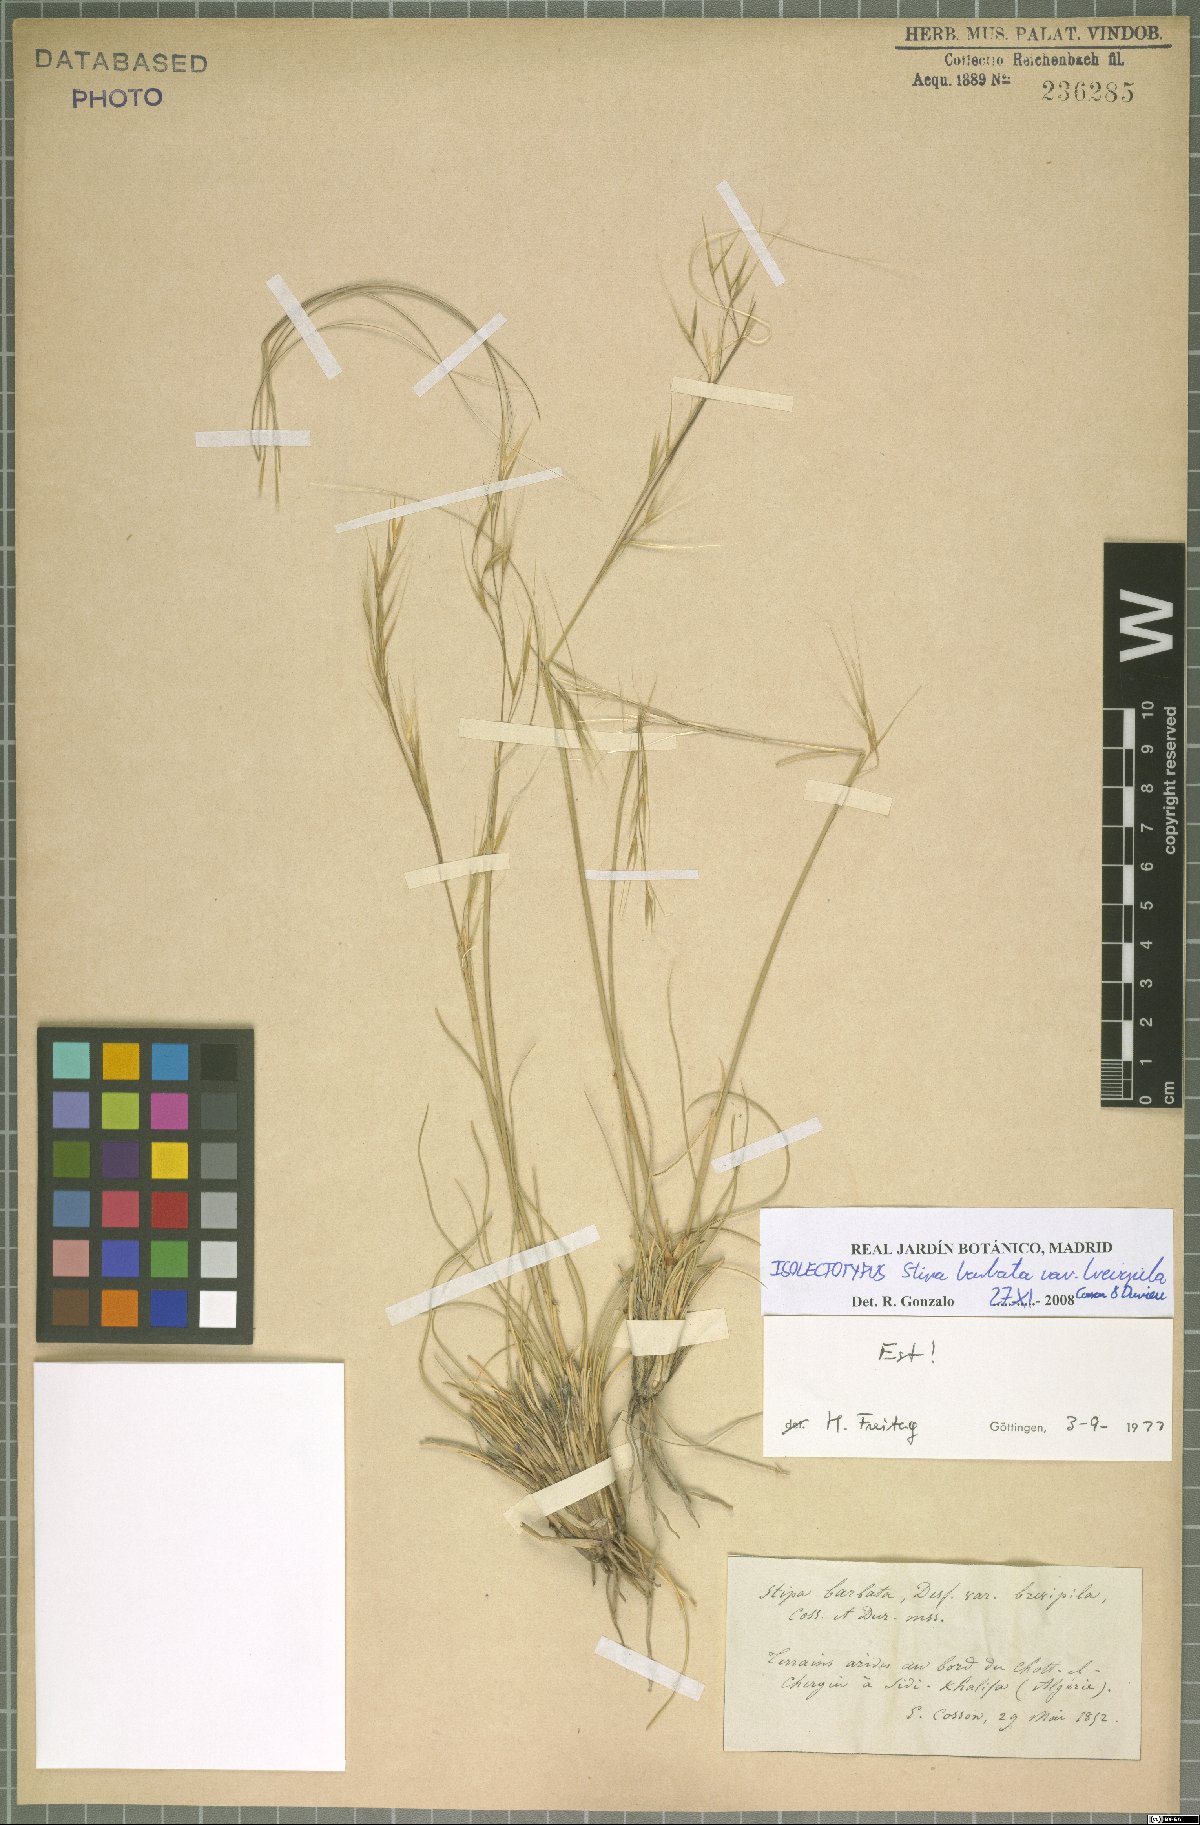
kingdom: Plantae
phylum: Tracheophyta
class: Liliopsida
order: Poales
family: Poaceae
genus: Stipa
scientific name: Stipa barbata
